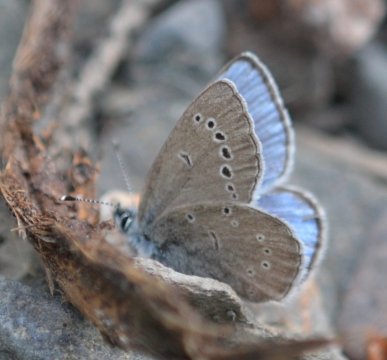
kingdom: Animalia
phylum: Arthropoda
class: Insecta
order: Lepidoptera
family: Lycaenidae
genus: Glaucopsyche
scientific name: Glaucopsyche lygdamus
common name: Silvery Blue
